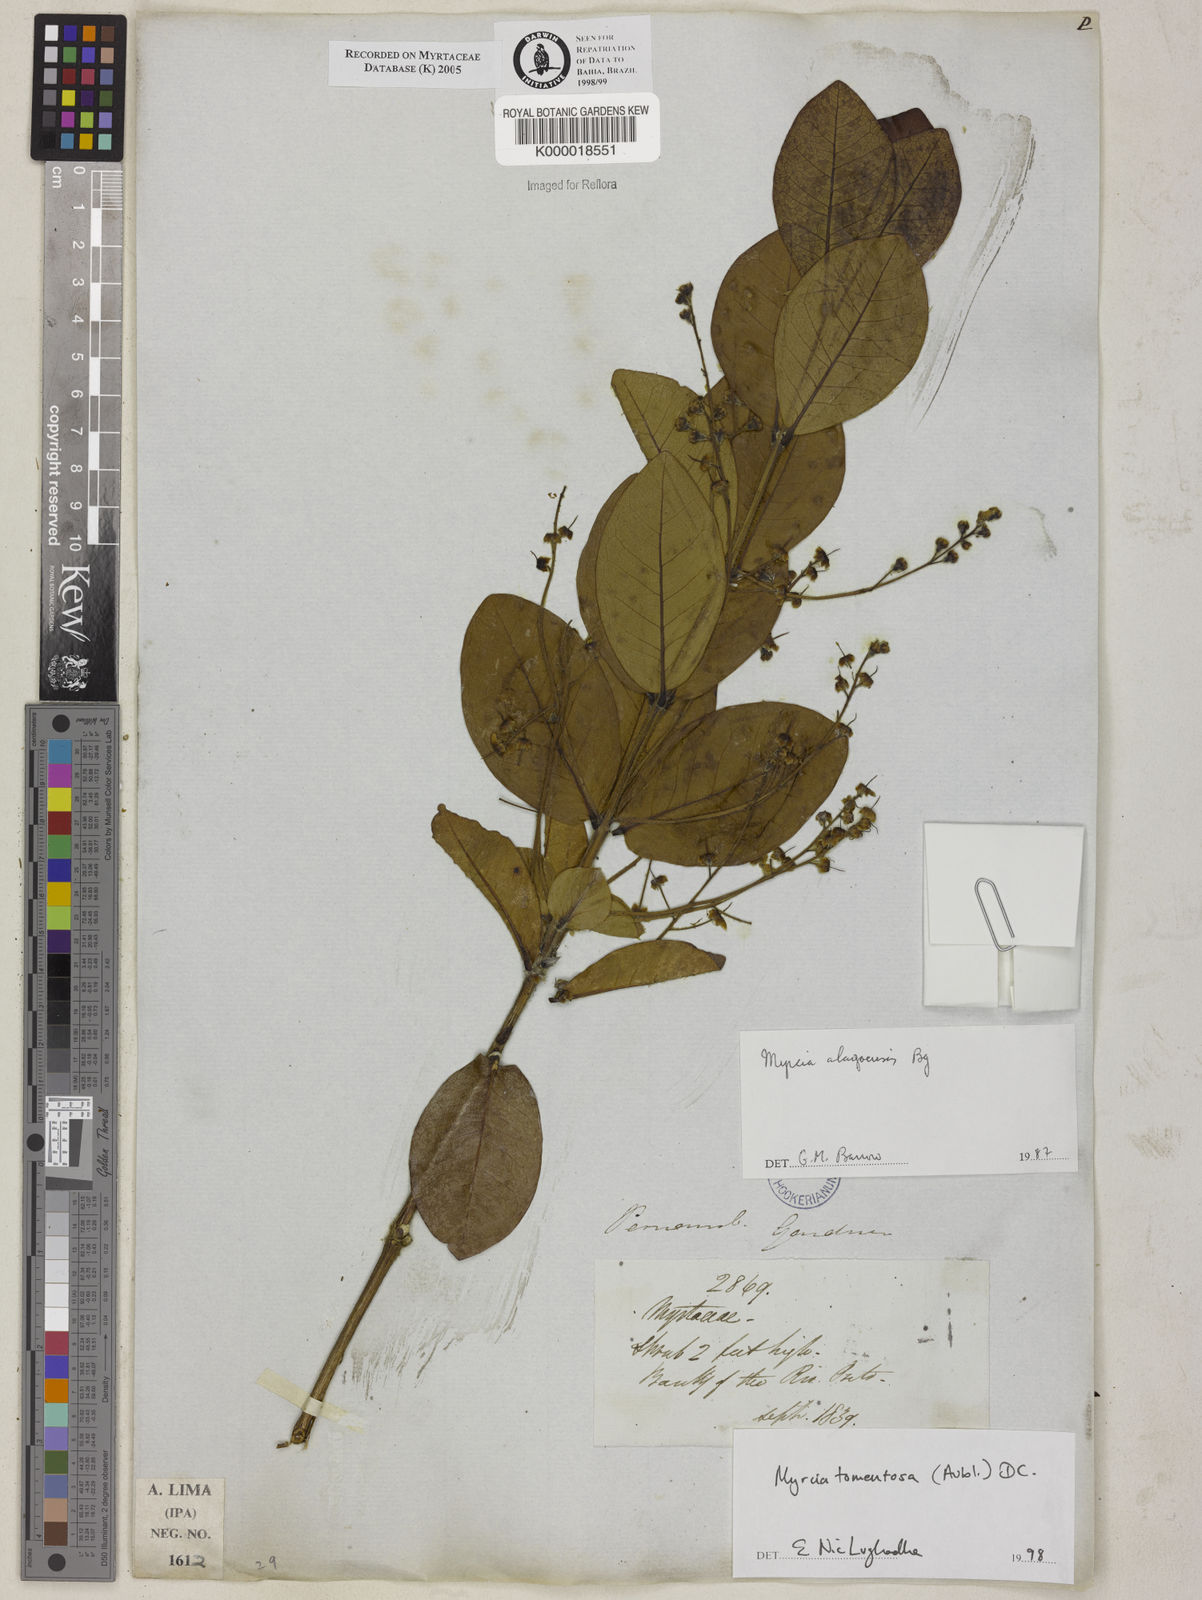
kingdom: Plantae
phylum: Tracheophyta
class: Magnoliopsida
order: Myrtales
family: Myrtaceae
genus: Myrcia
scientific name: Myrcia tomentosa
